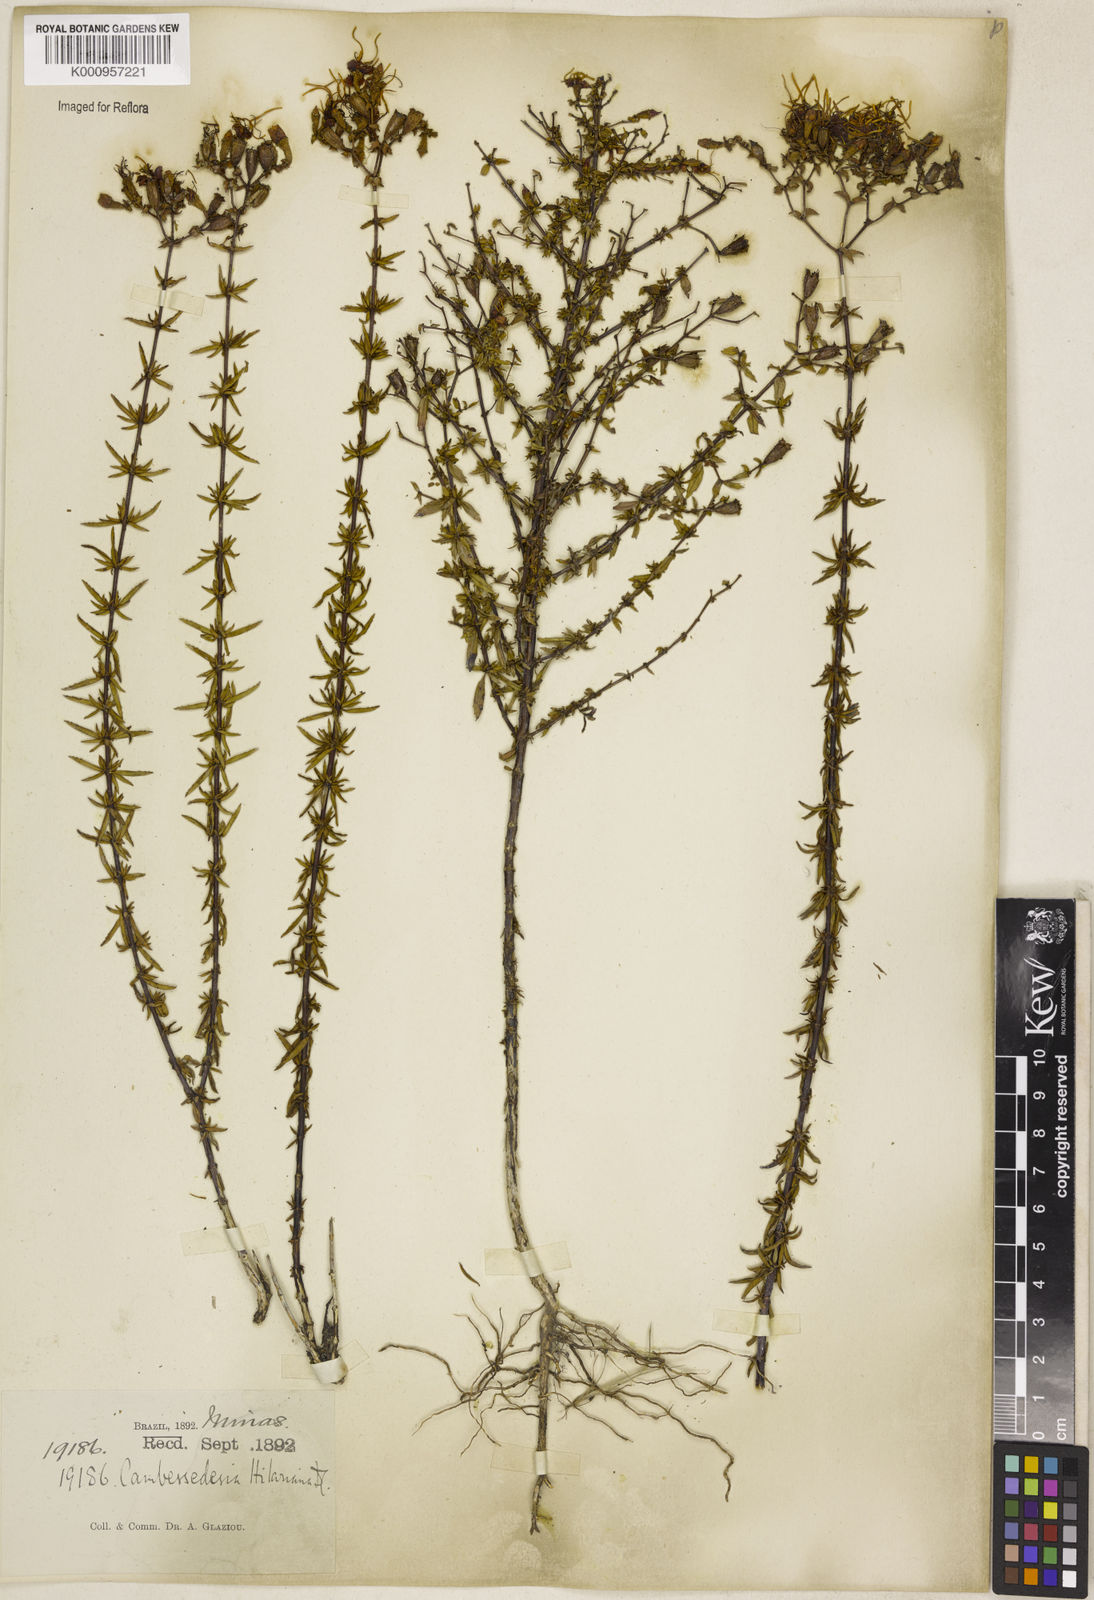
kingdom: Plantae
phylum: Tracheophyta
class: Magnoliopsida
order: Myrtales
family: Melastomataceae
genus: Cambessedesia
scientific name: Cambessedesia hilariana
